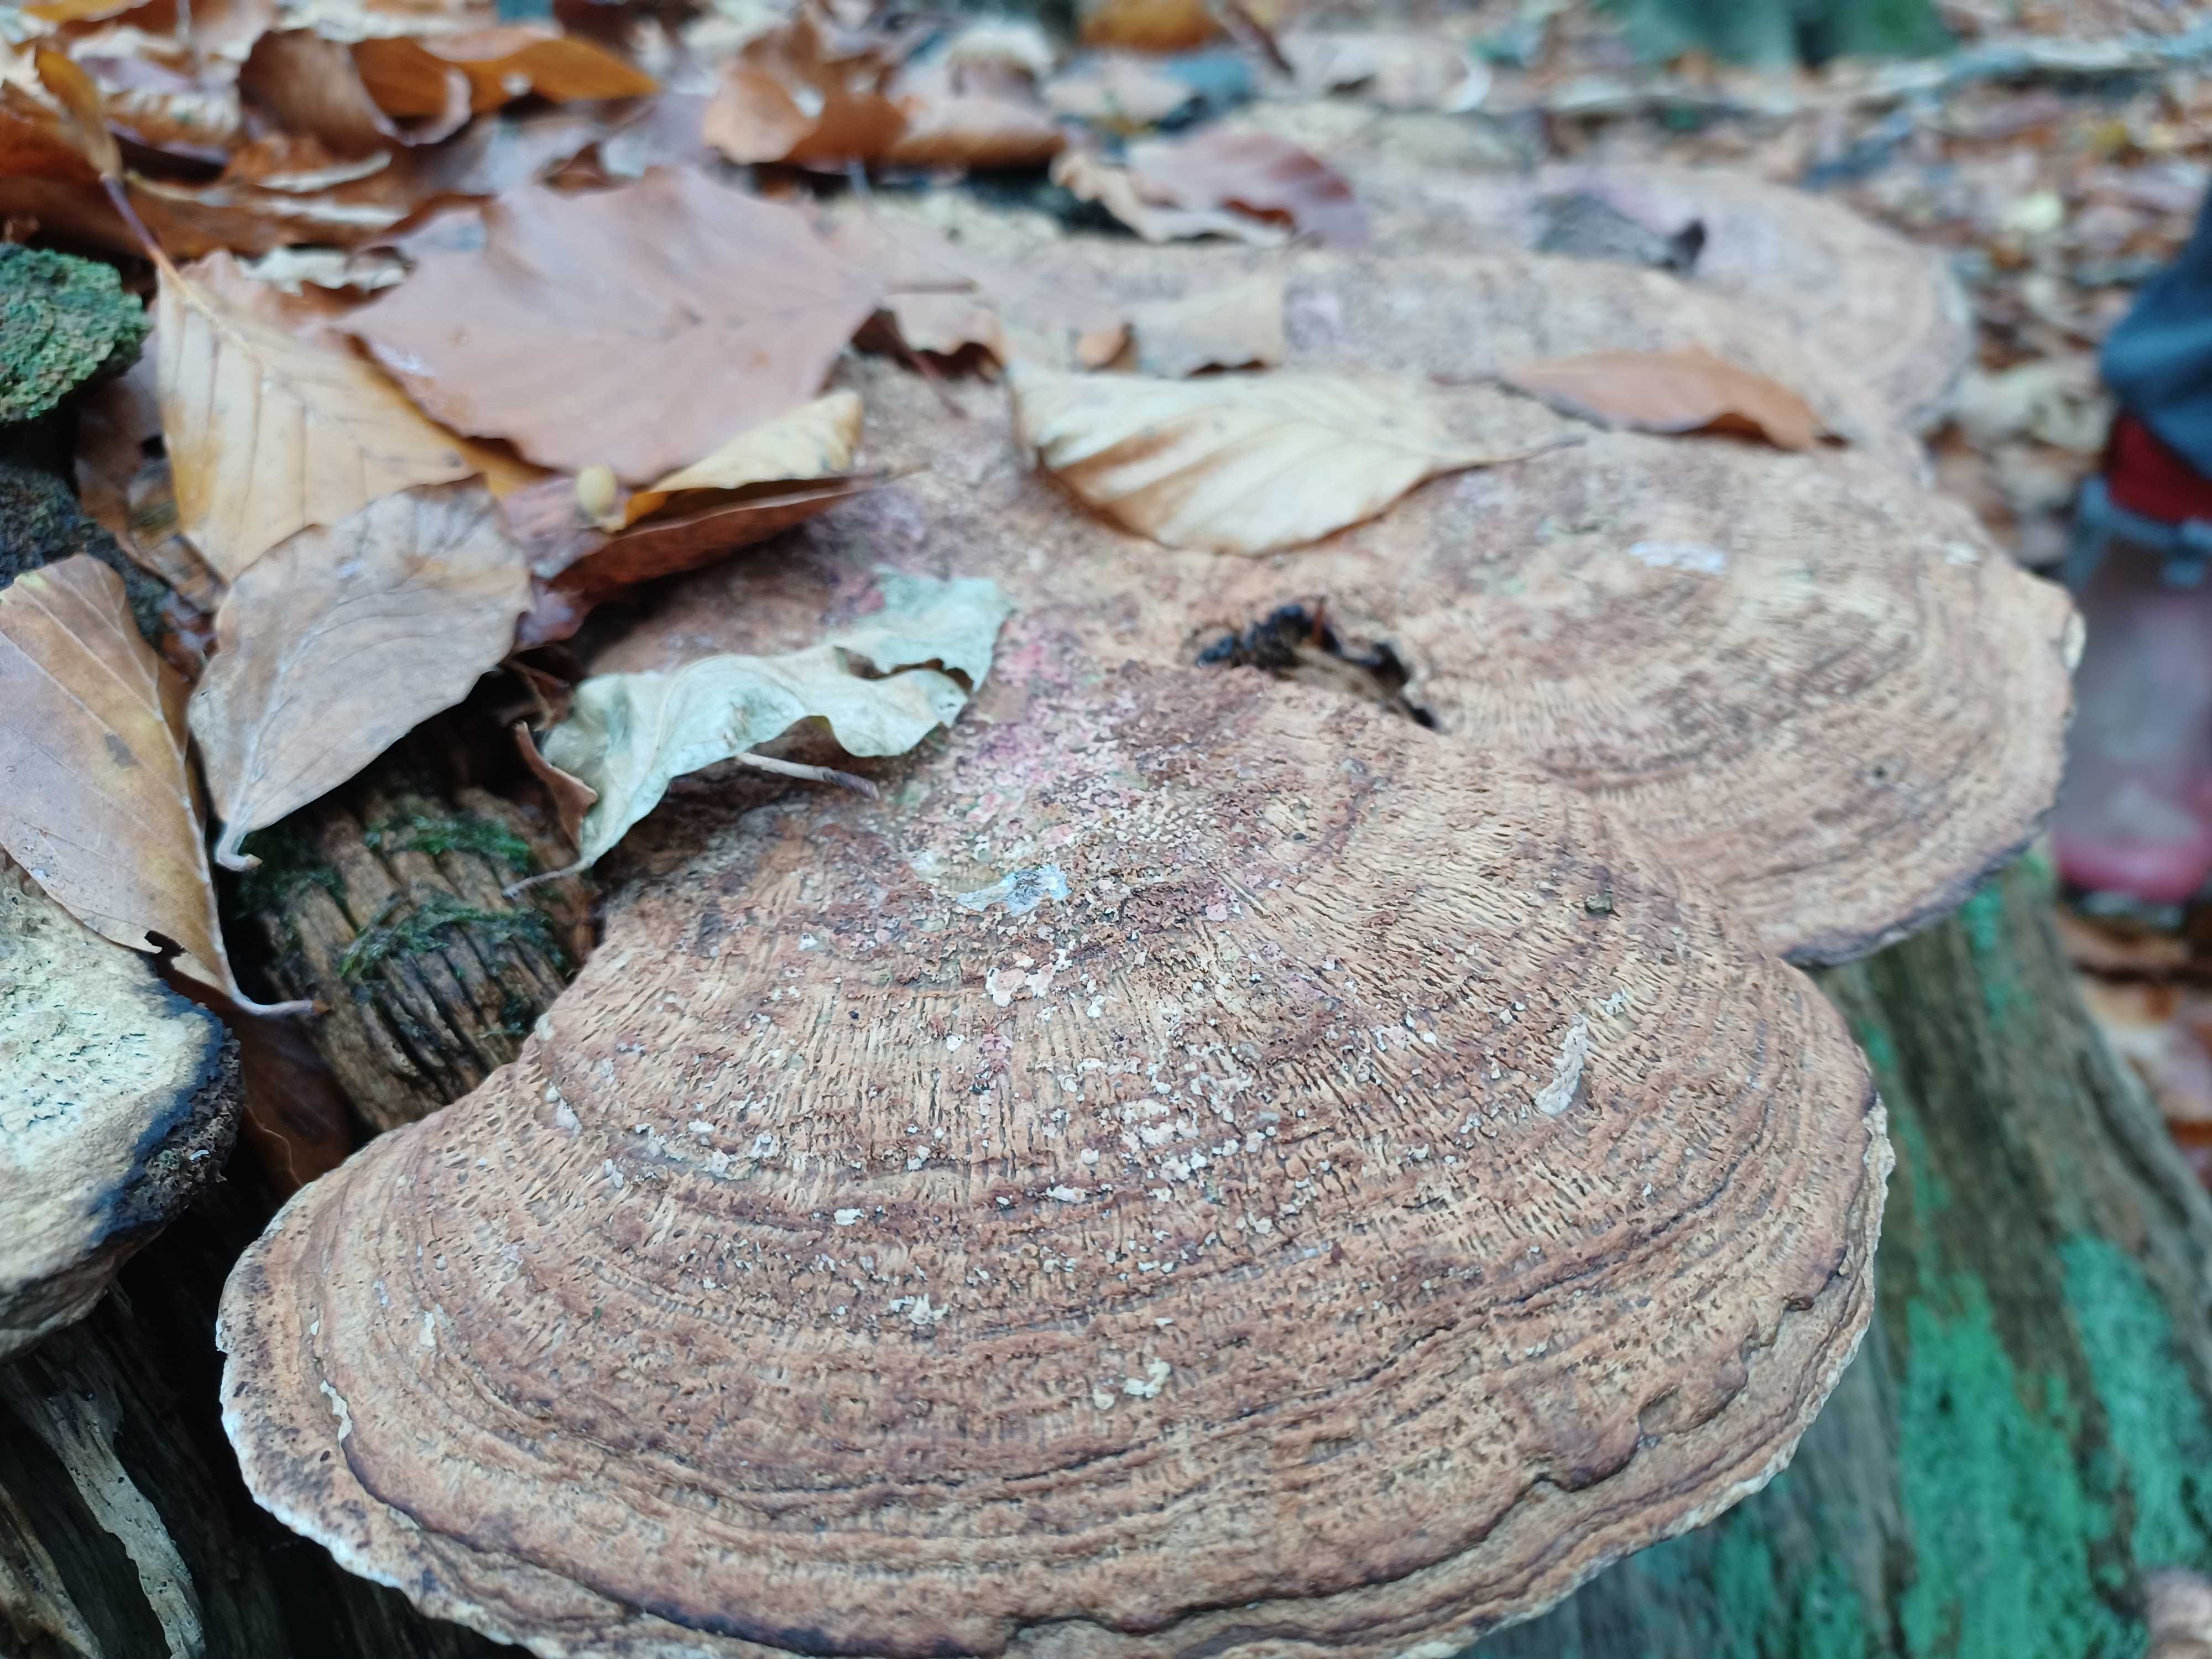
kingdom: Fungi
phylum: Basidiomycota
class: Agaricomycetes
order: Polyporales
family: Fomitopsidaceae
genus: Daedalea
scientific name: Daedalea quercina
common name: ege-labyrintsvamp
